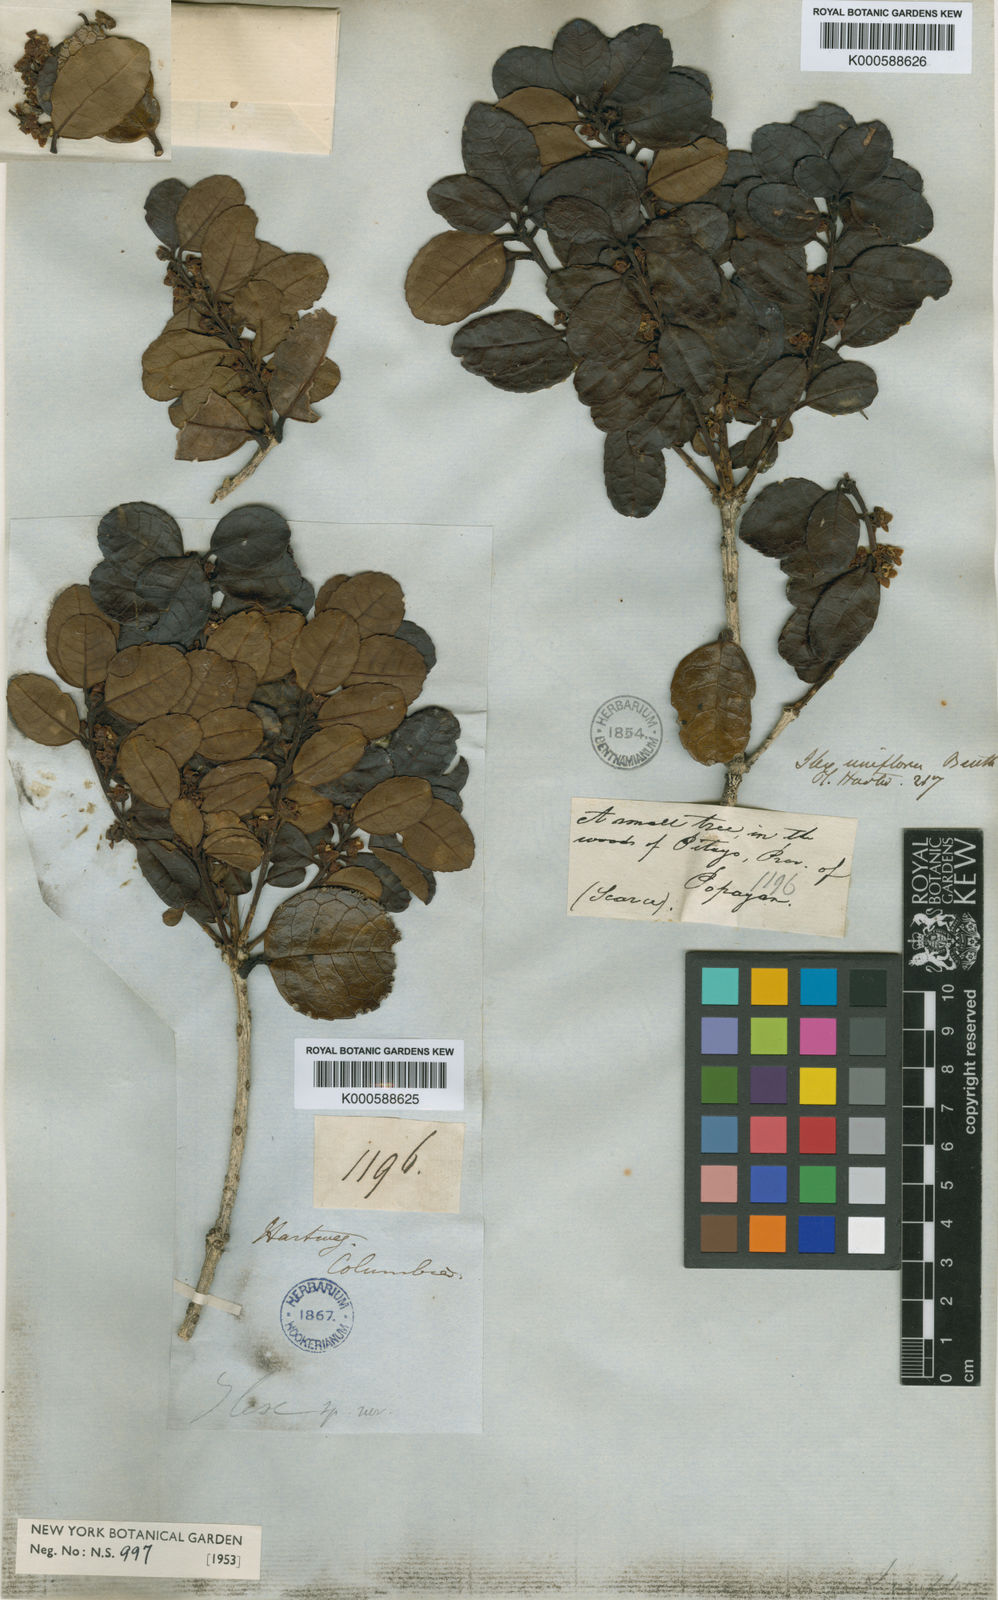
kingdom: Plantae
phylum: Tracheophyta
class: Magnoliopsida
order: Aquifoliales
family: Aquifoliaceae
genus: Ilex
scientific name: Ilex uniflora
